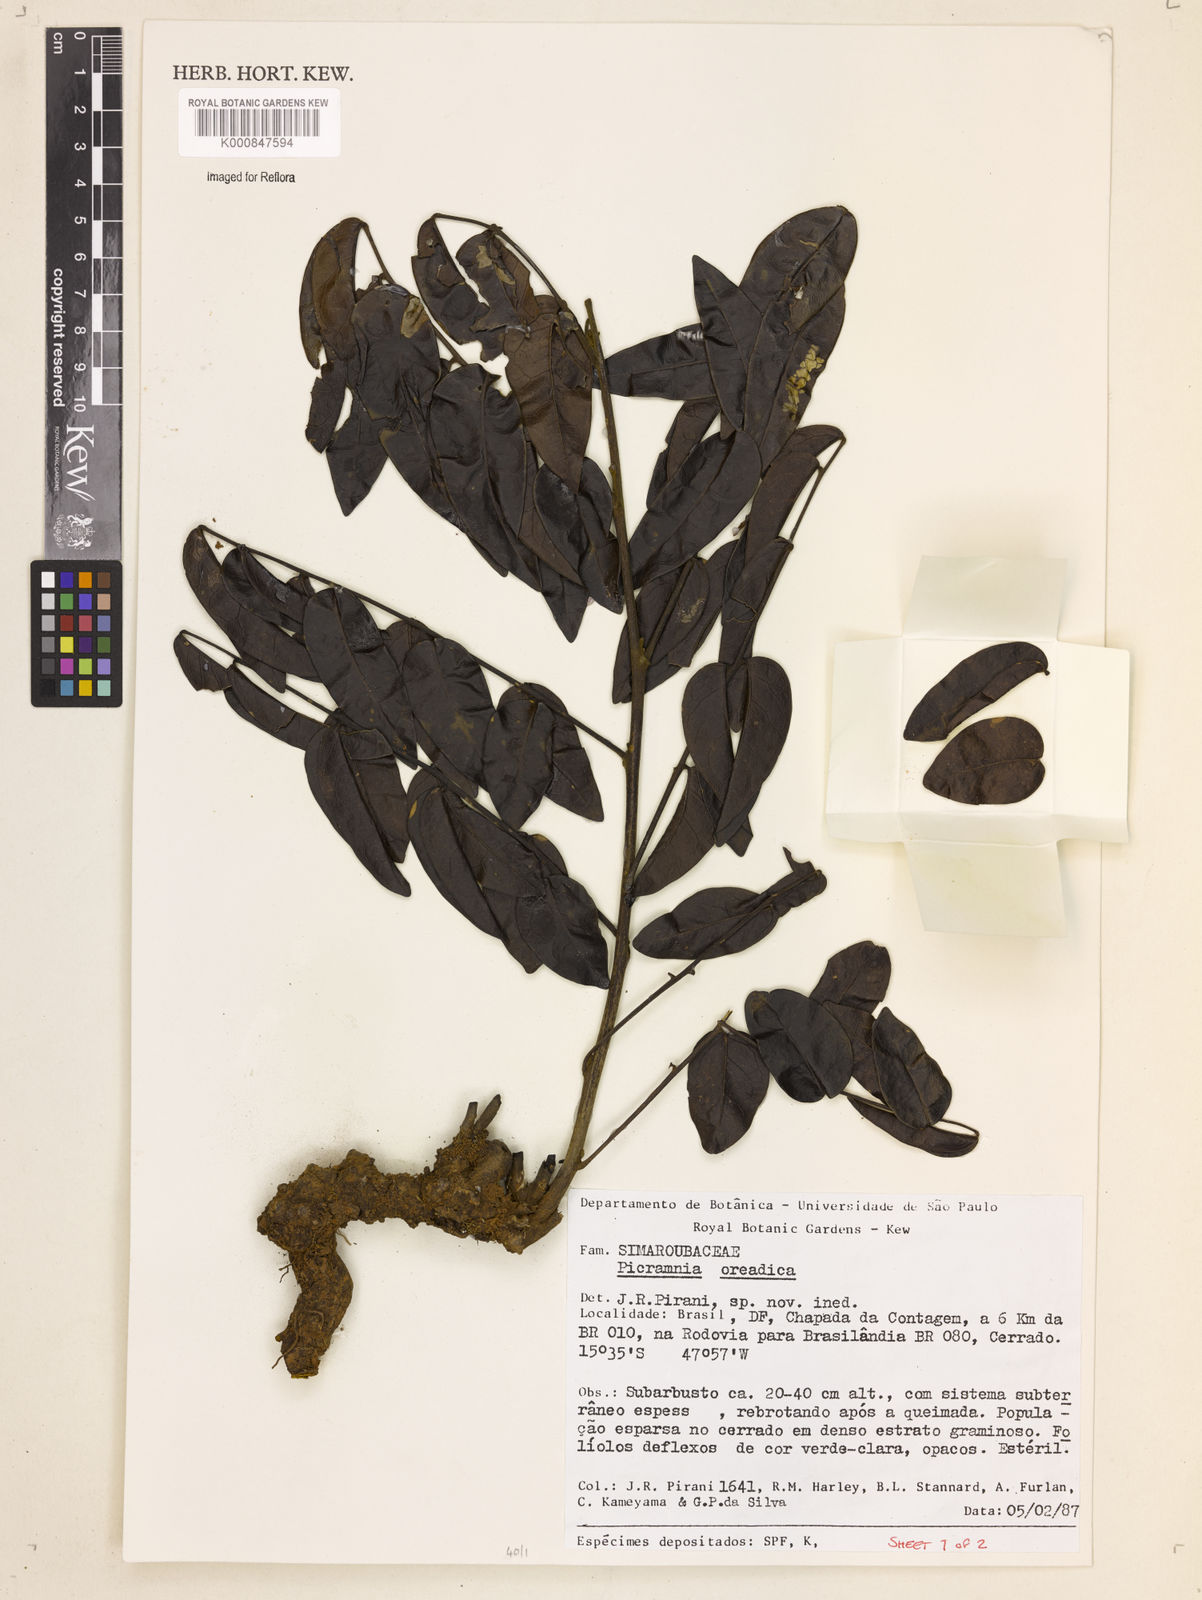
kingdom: Plantae
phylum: Tracheophyta
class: Magnoliopsida
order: Picramniales
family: Picramniaceae
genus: Picramnia
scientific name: Picramnia oreadica
